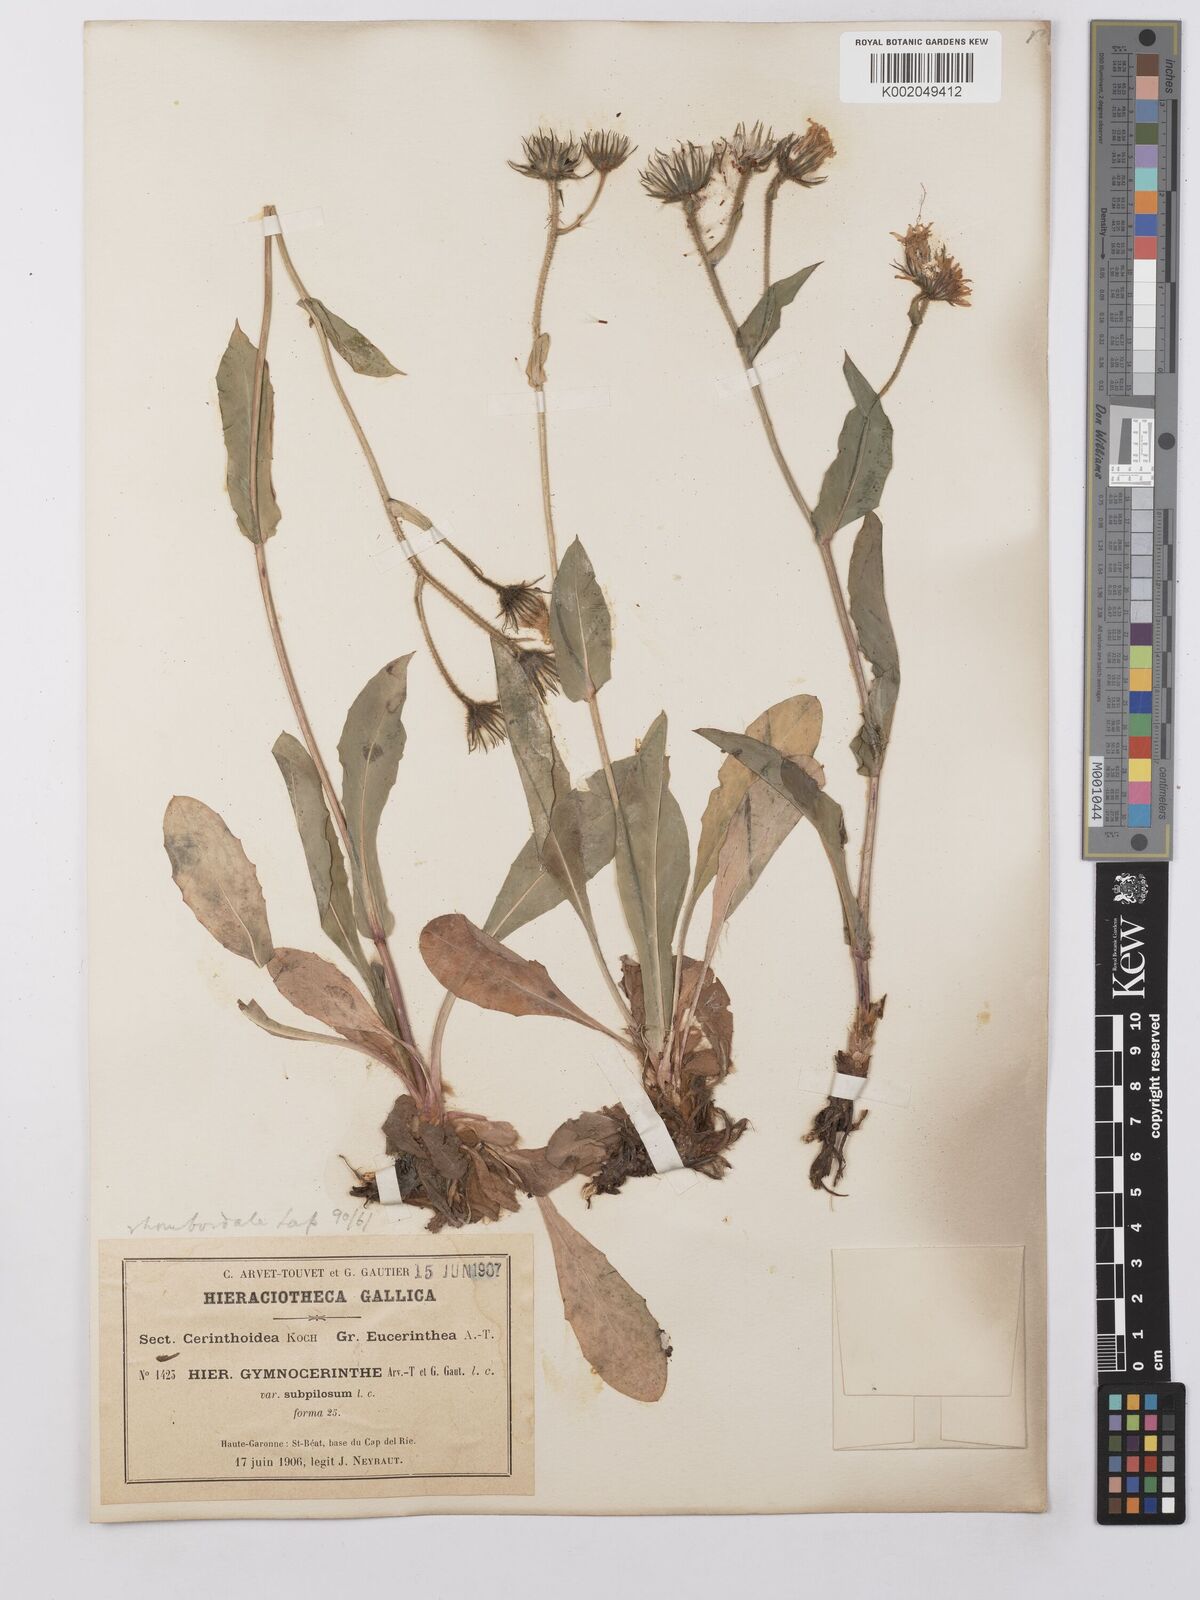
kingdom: Plantae
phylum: Tracheophyta
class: Magnoliopsida
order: Asterales
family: Asteraceae
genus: Hieracium
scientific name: Hieracium cerinthoides
